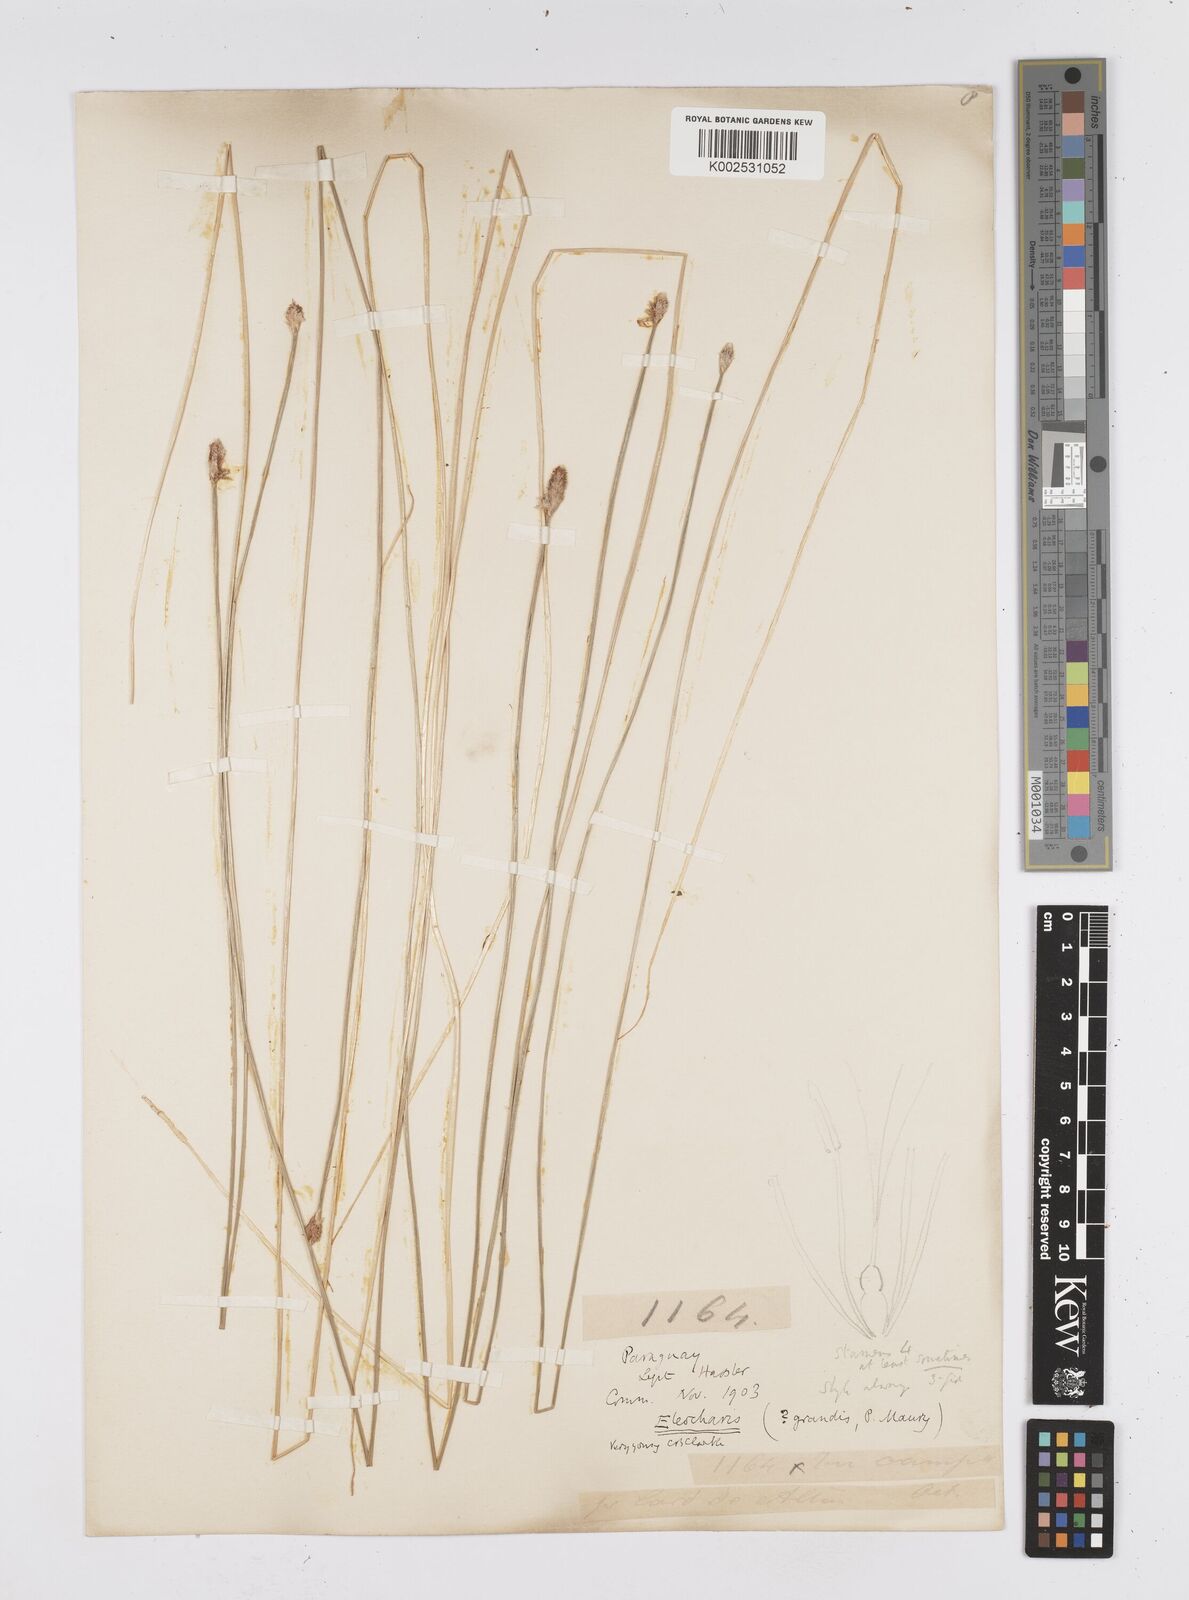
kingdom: Plantae
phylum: Tracheophyta
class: Liliopsida
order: Poales
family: Cyperaceae
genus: Eleocharis
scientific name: Eleocharis nudipes
